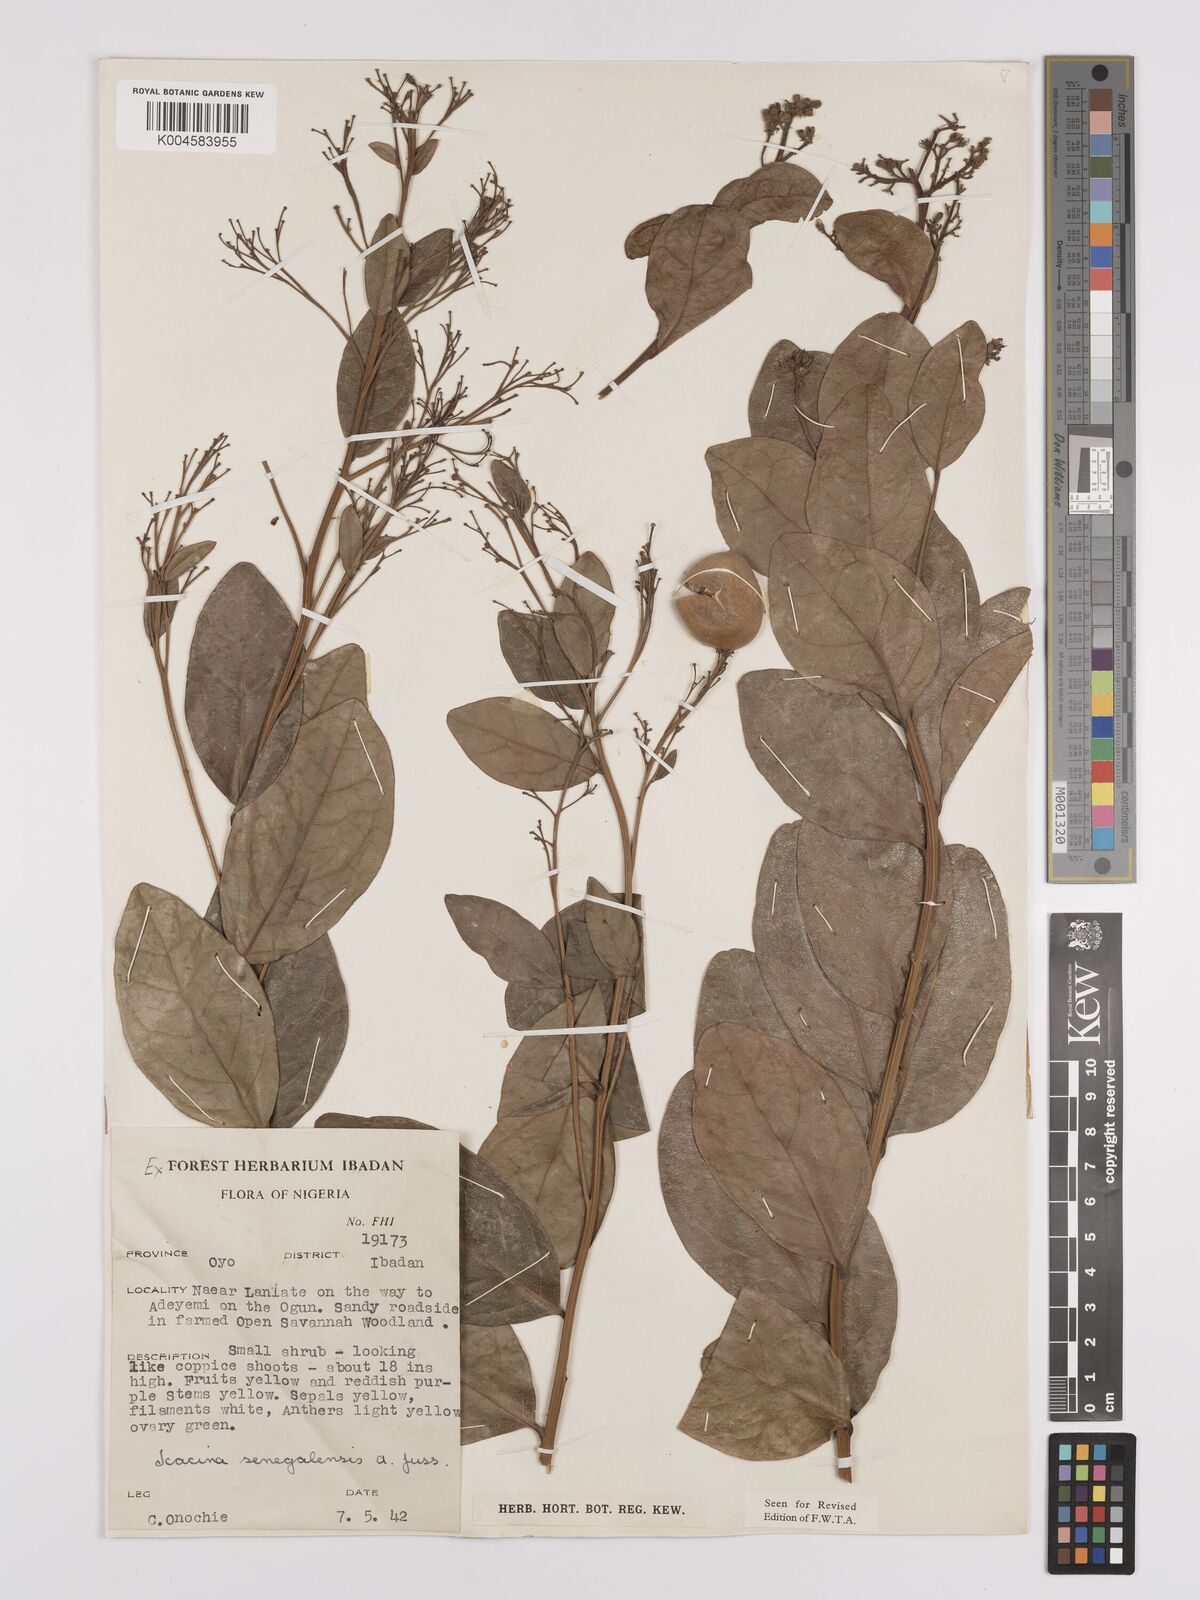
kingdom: Plantae
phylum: Tracheophyta
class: Magnoliopsida
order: Icacinales
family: Icacinaceae
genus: Icacina
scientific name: Icacina oliviformis
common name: False yam
